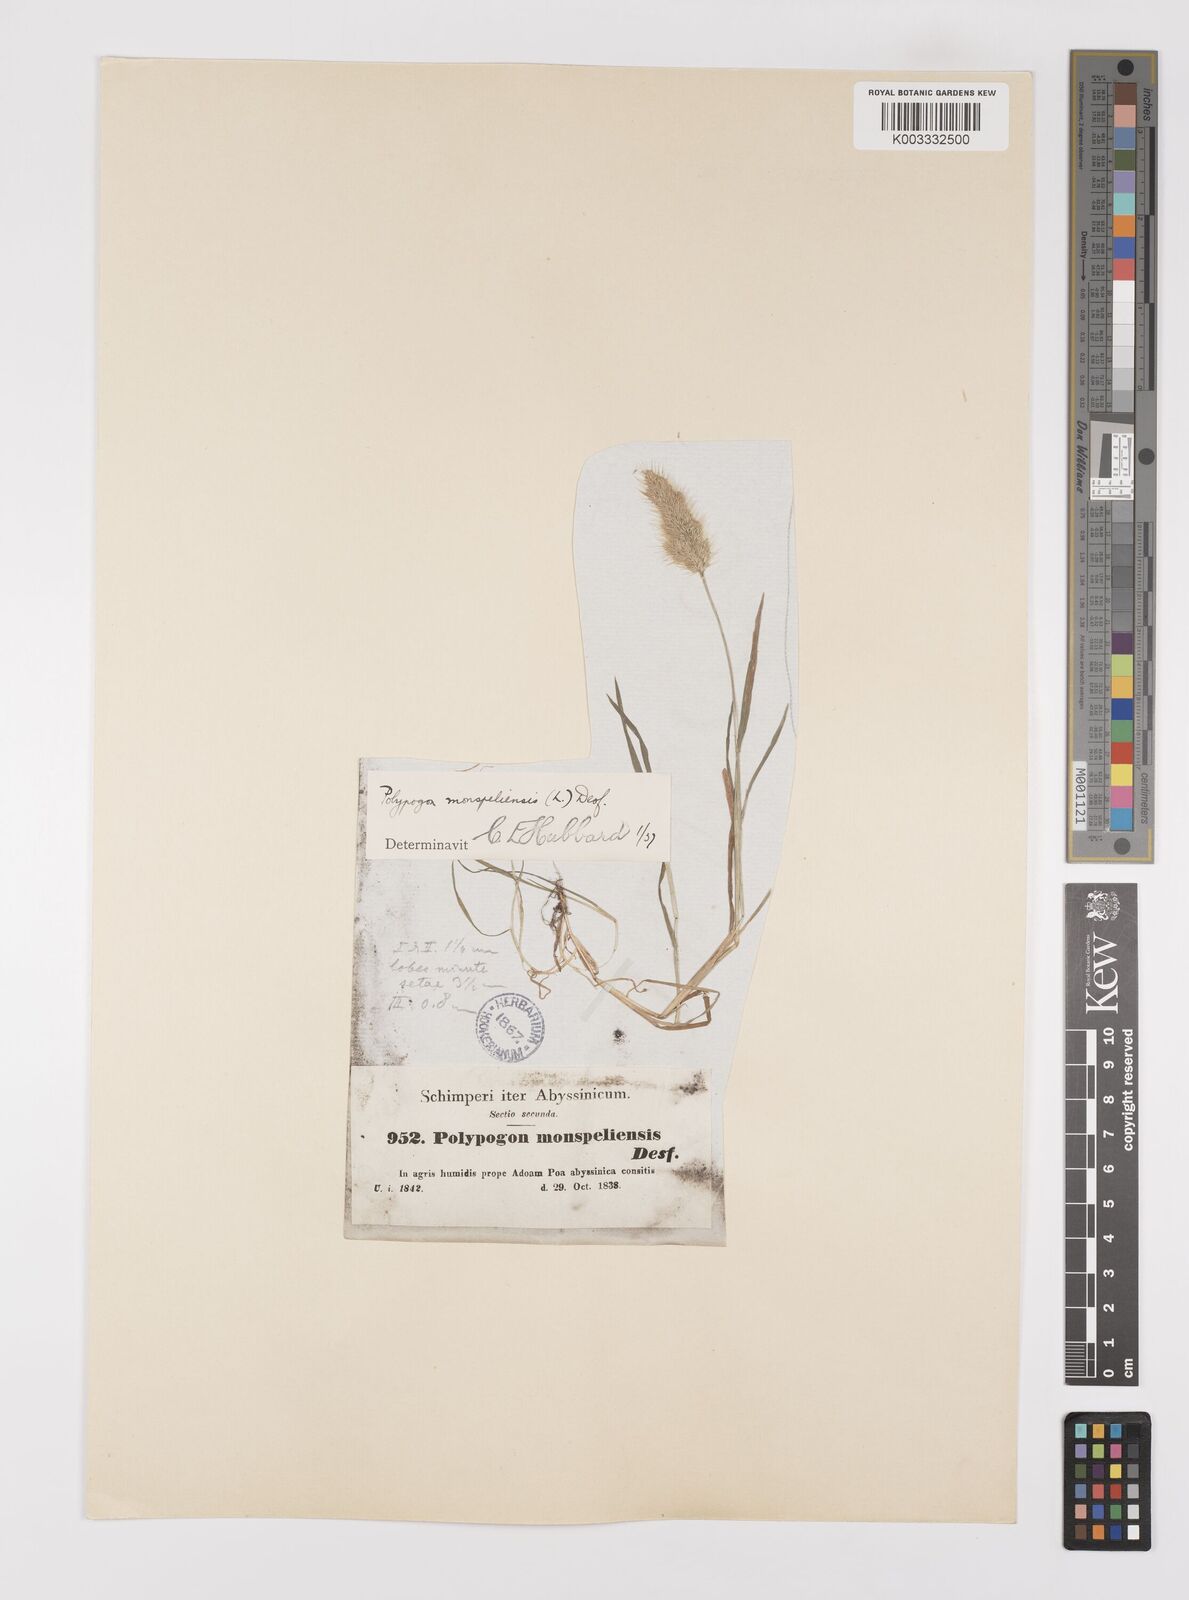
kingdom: Plantae
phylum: Tracheophyta
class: Liliopsida
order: Poales
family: Poaceae
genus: Polypogon
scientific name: Polypogon monspeliensis
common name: Annual rabbitsfoot grass
